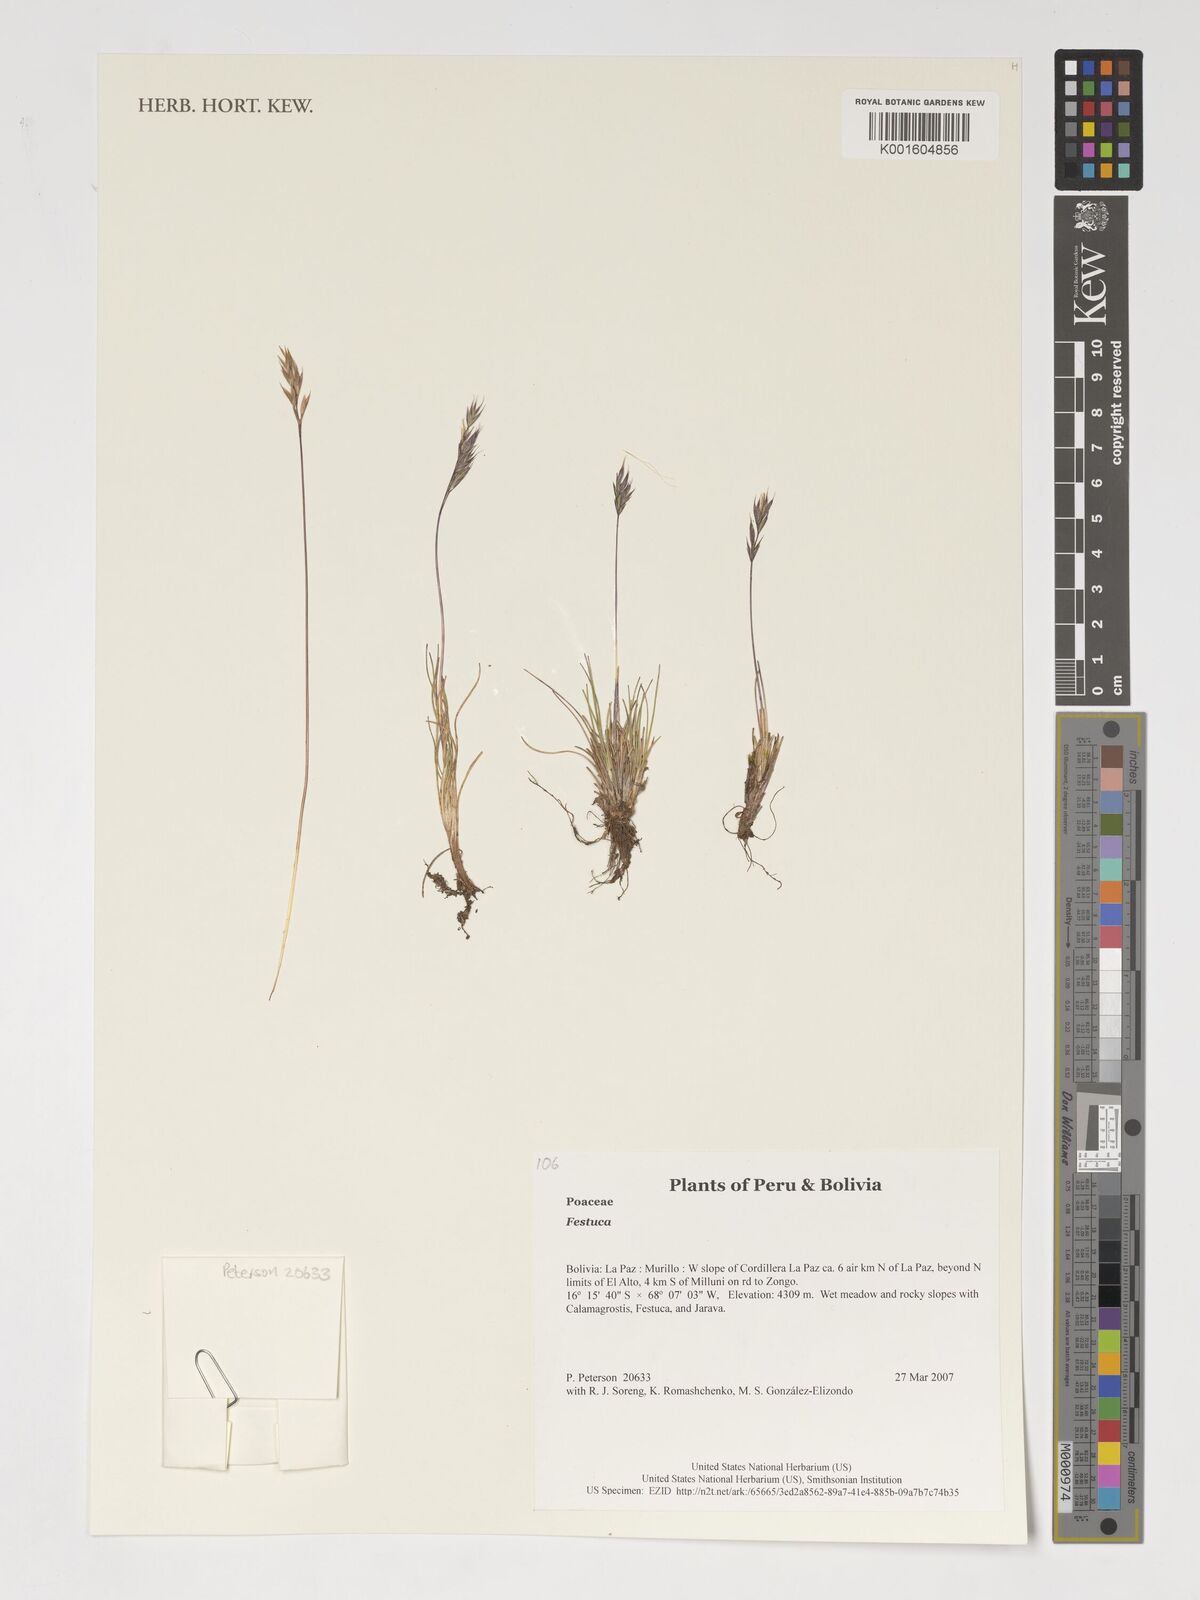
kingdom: Plantae
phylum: Tracheophyta
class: Liliopsida
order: Poales
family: Poaceae
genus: Festuca
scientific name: Festuca
